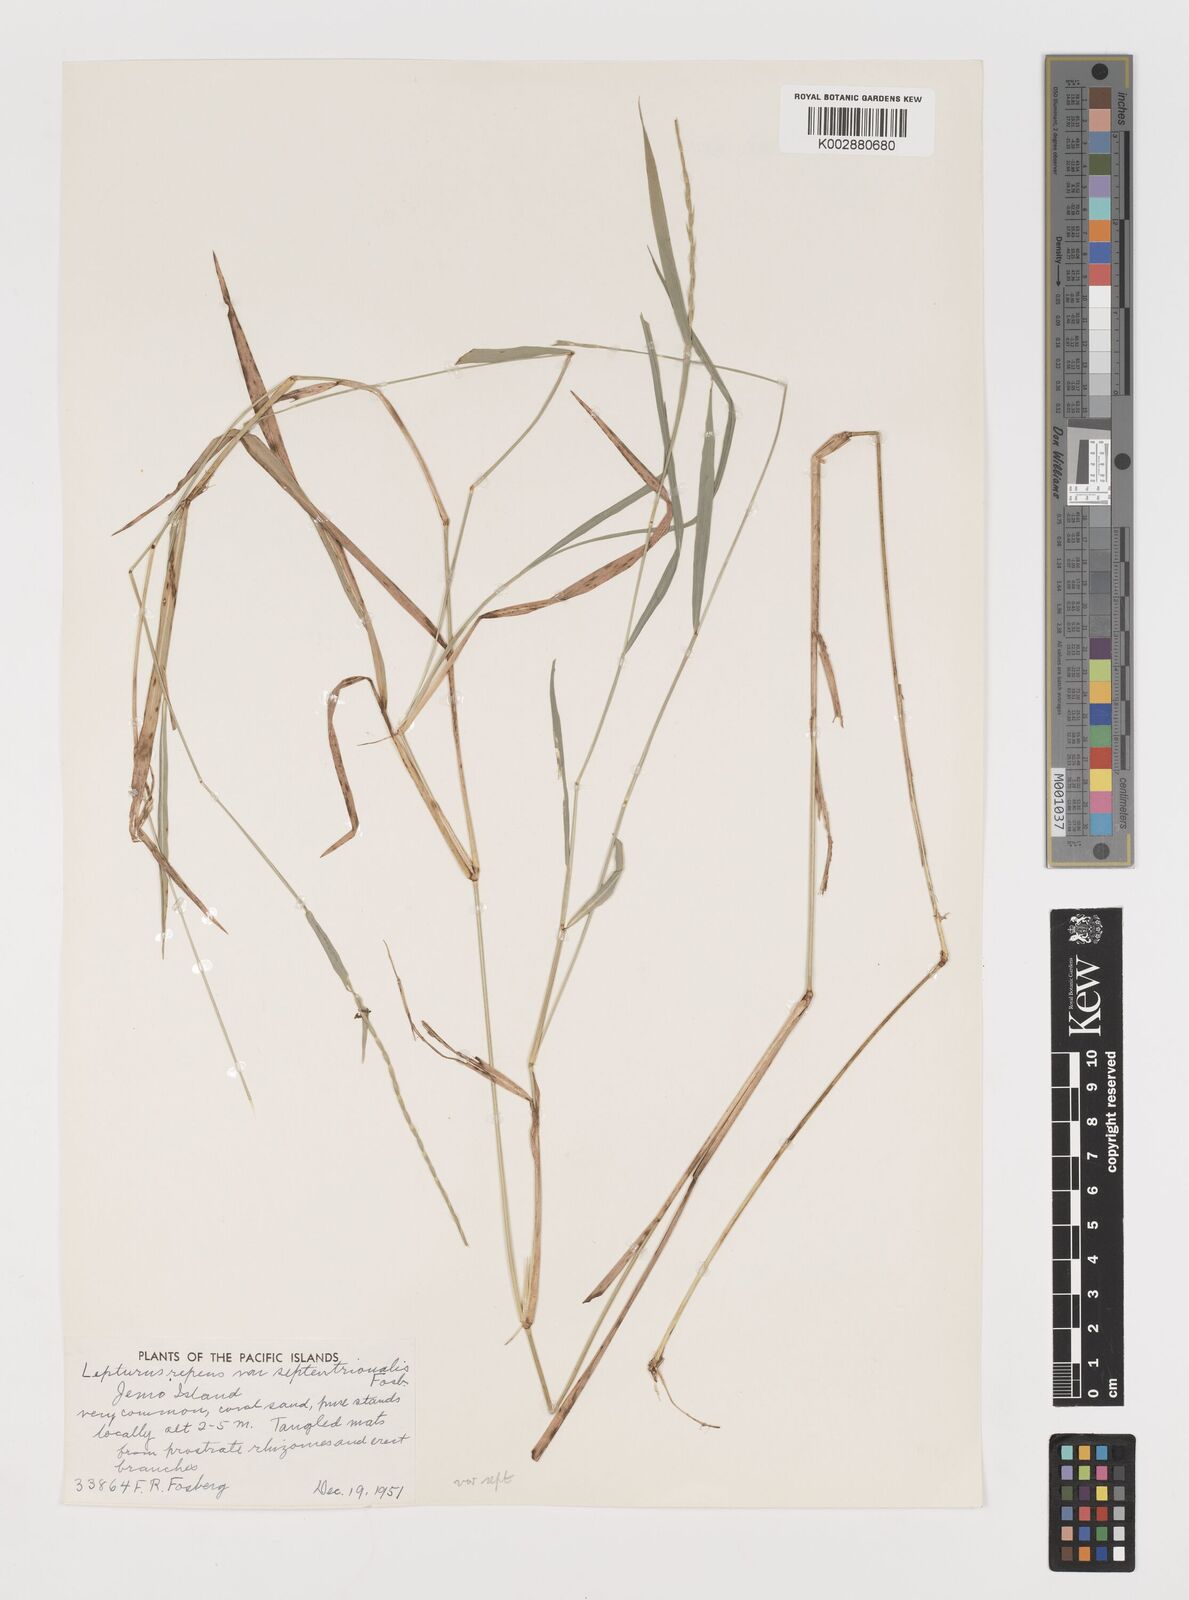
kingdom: Plantae
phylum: Tracheophyta
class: Liliopsida
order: Poales
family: Poaceae
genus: Lepturus
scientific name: Lepturus repens
